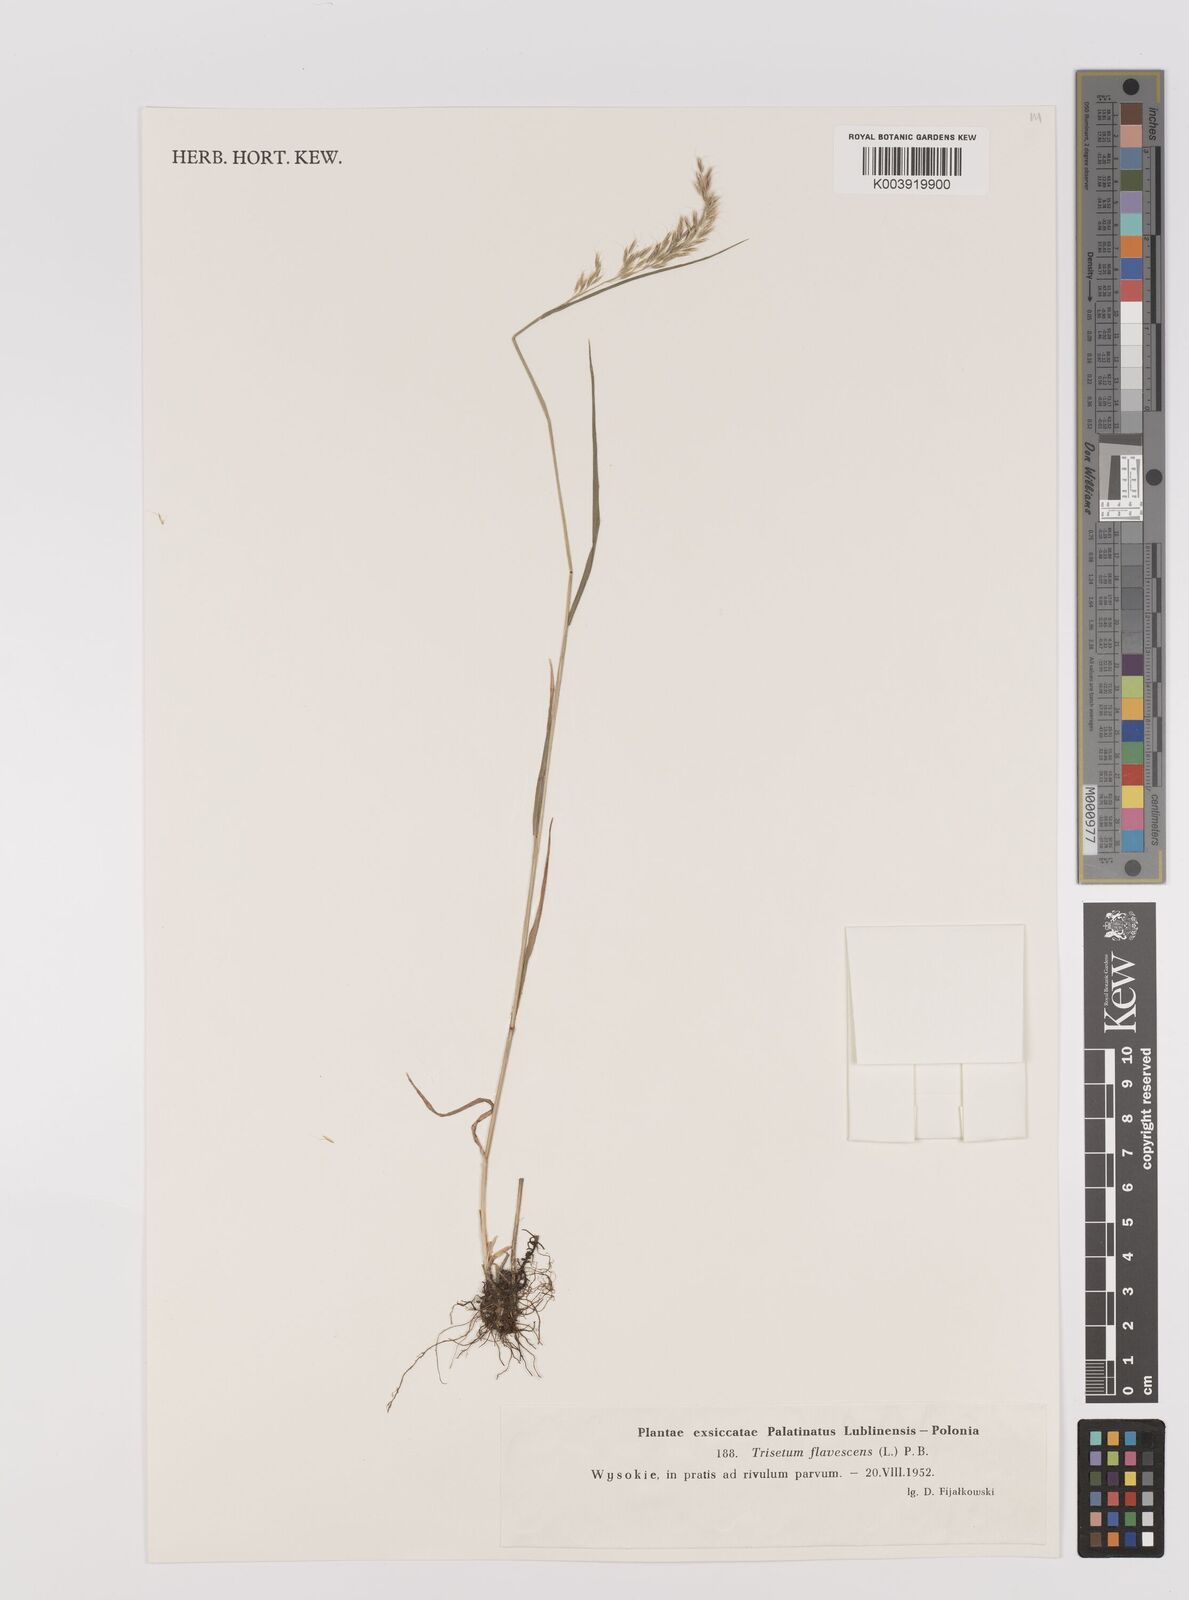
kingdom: Plantae
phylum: Tracheophyta
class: Liliopsida
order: Poales
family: Poaceae
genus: Trisetum
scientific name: Trisetum flavescens
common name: Yellow oat-grass
